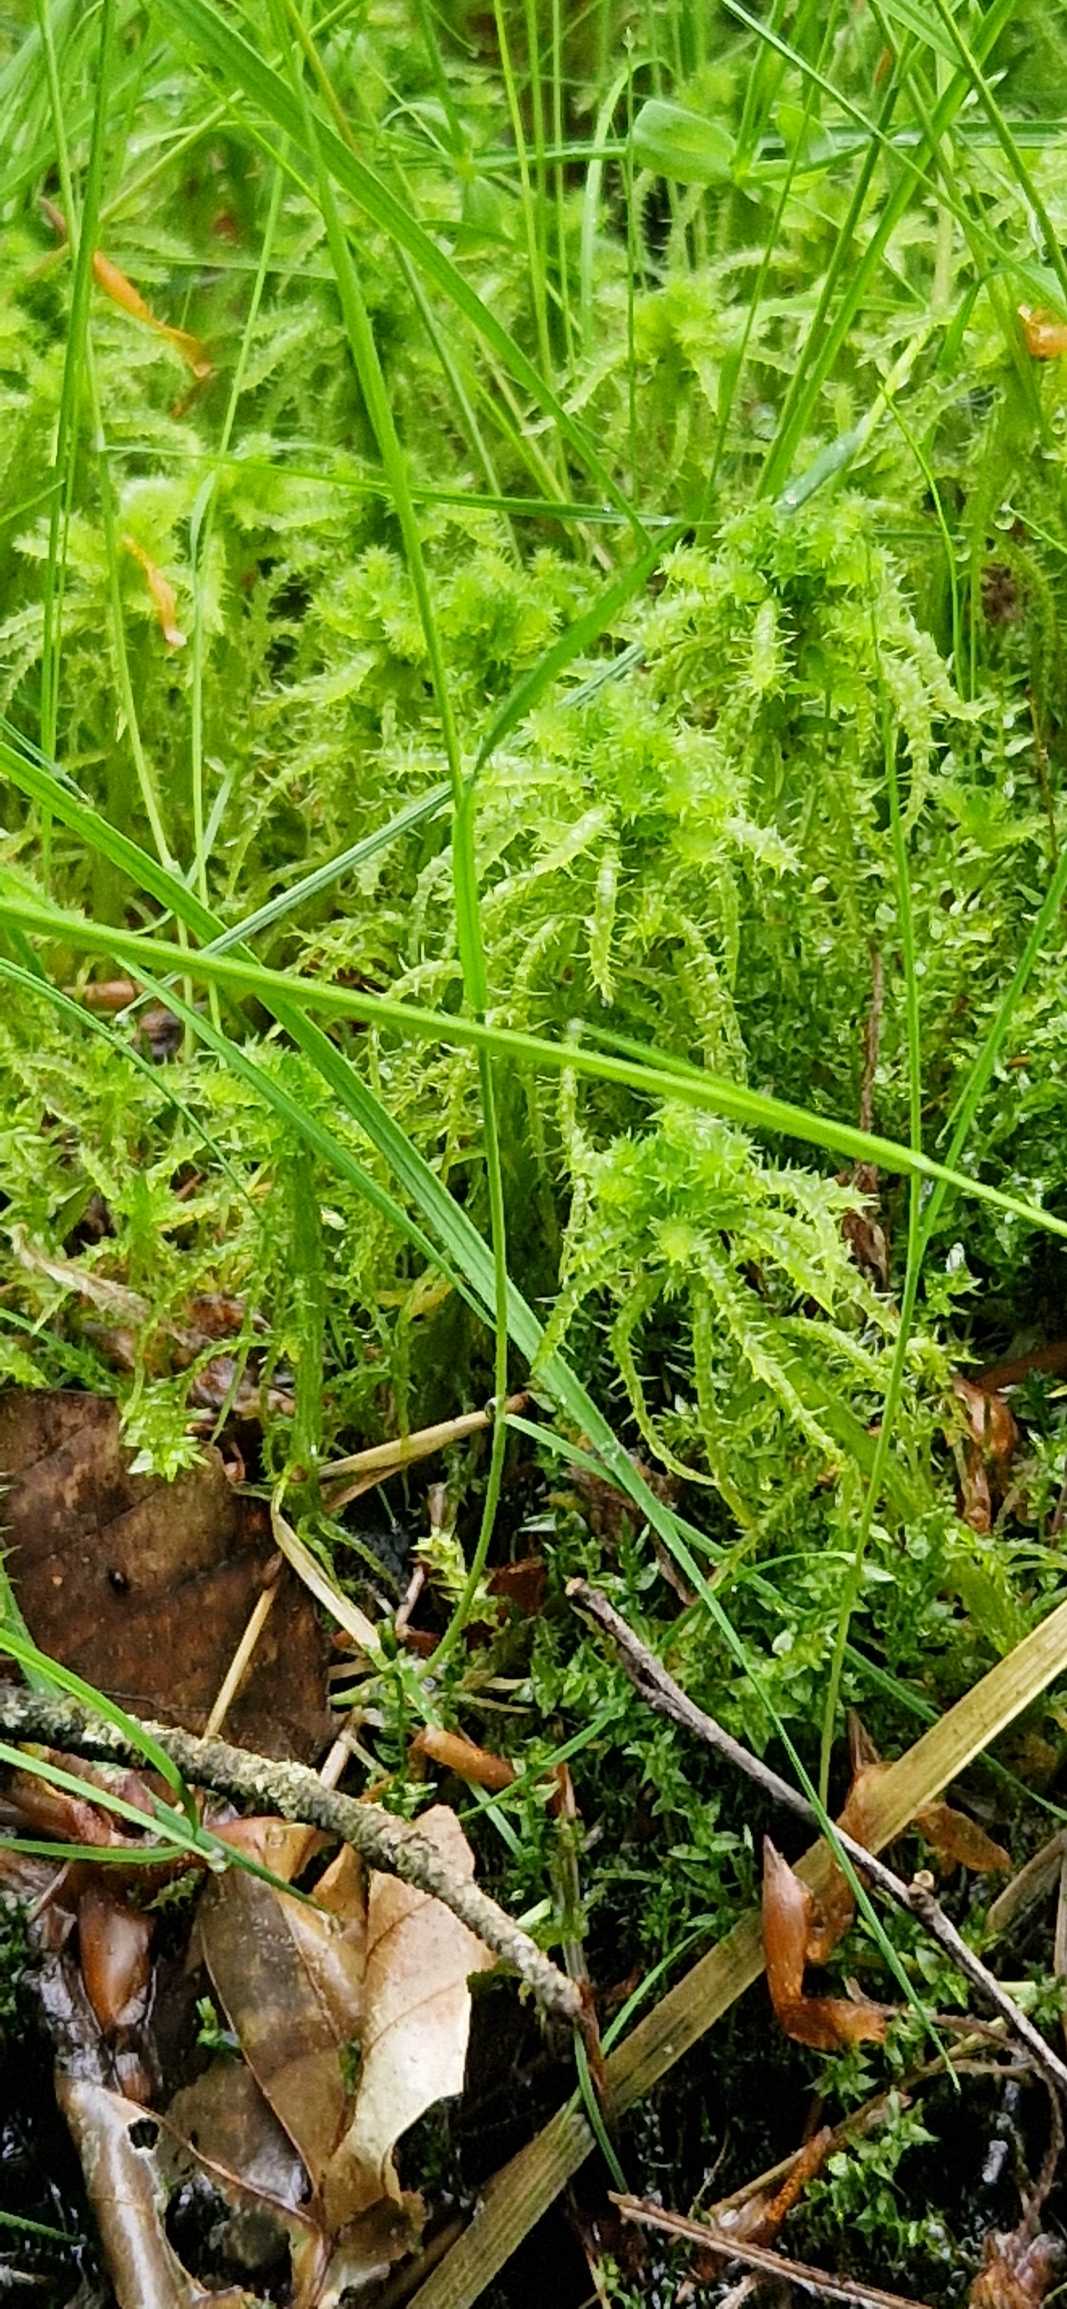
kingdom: Plantae
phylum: Bryophyta
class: Sphagnopsida
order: Sphagnales
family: Sphagnaceae
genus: Sphagnum
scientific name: Sphagnum squarrosum
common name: Udspærret tørvemos
